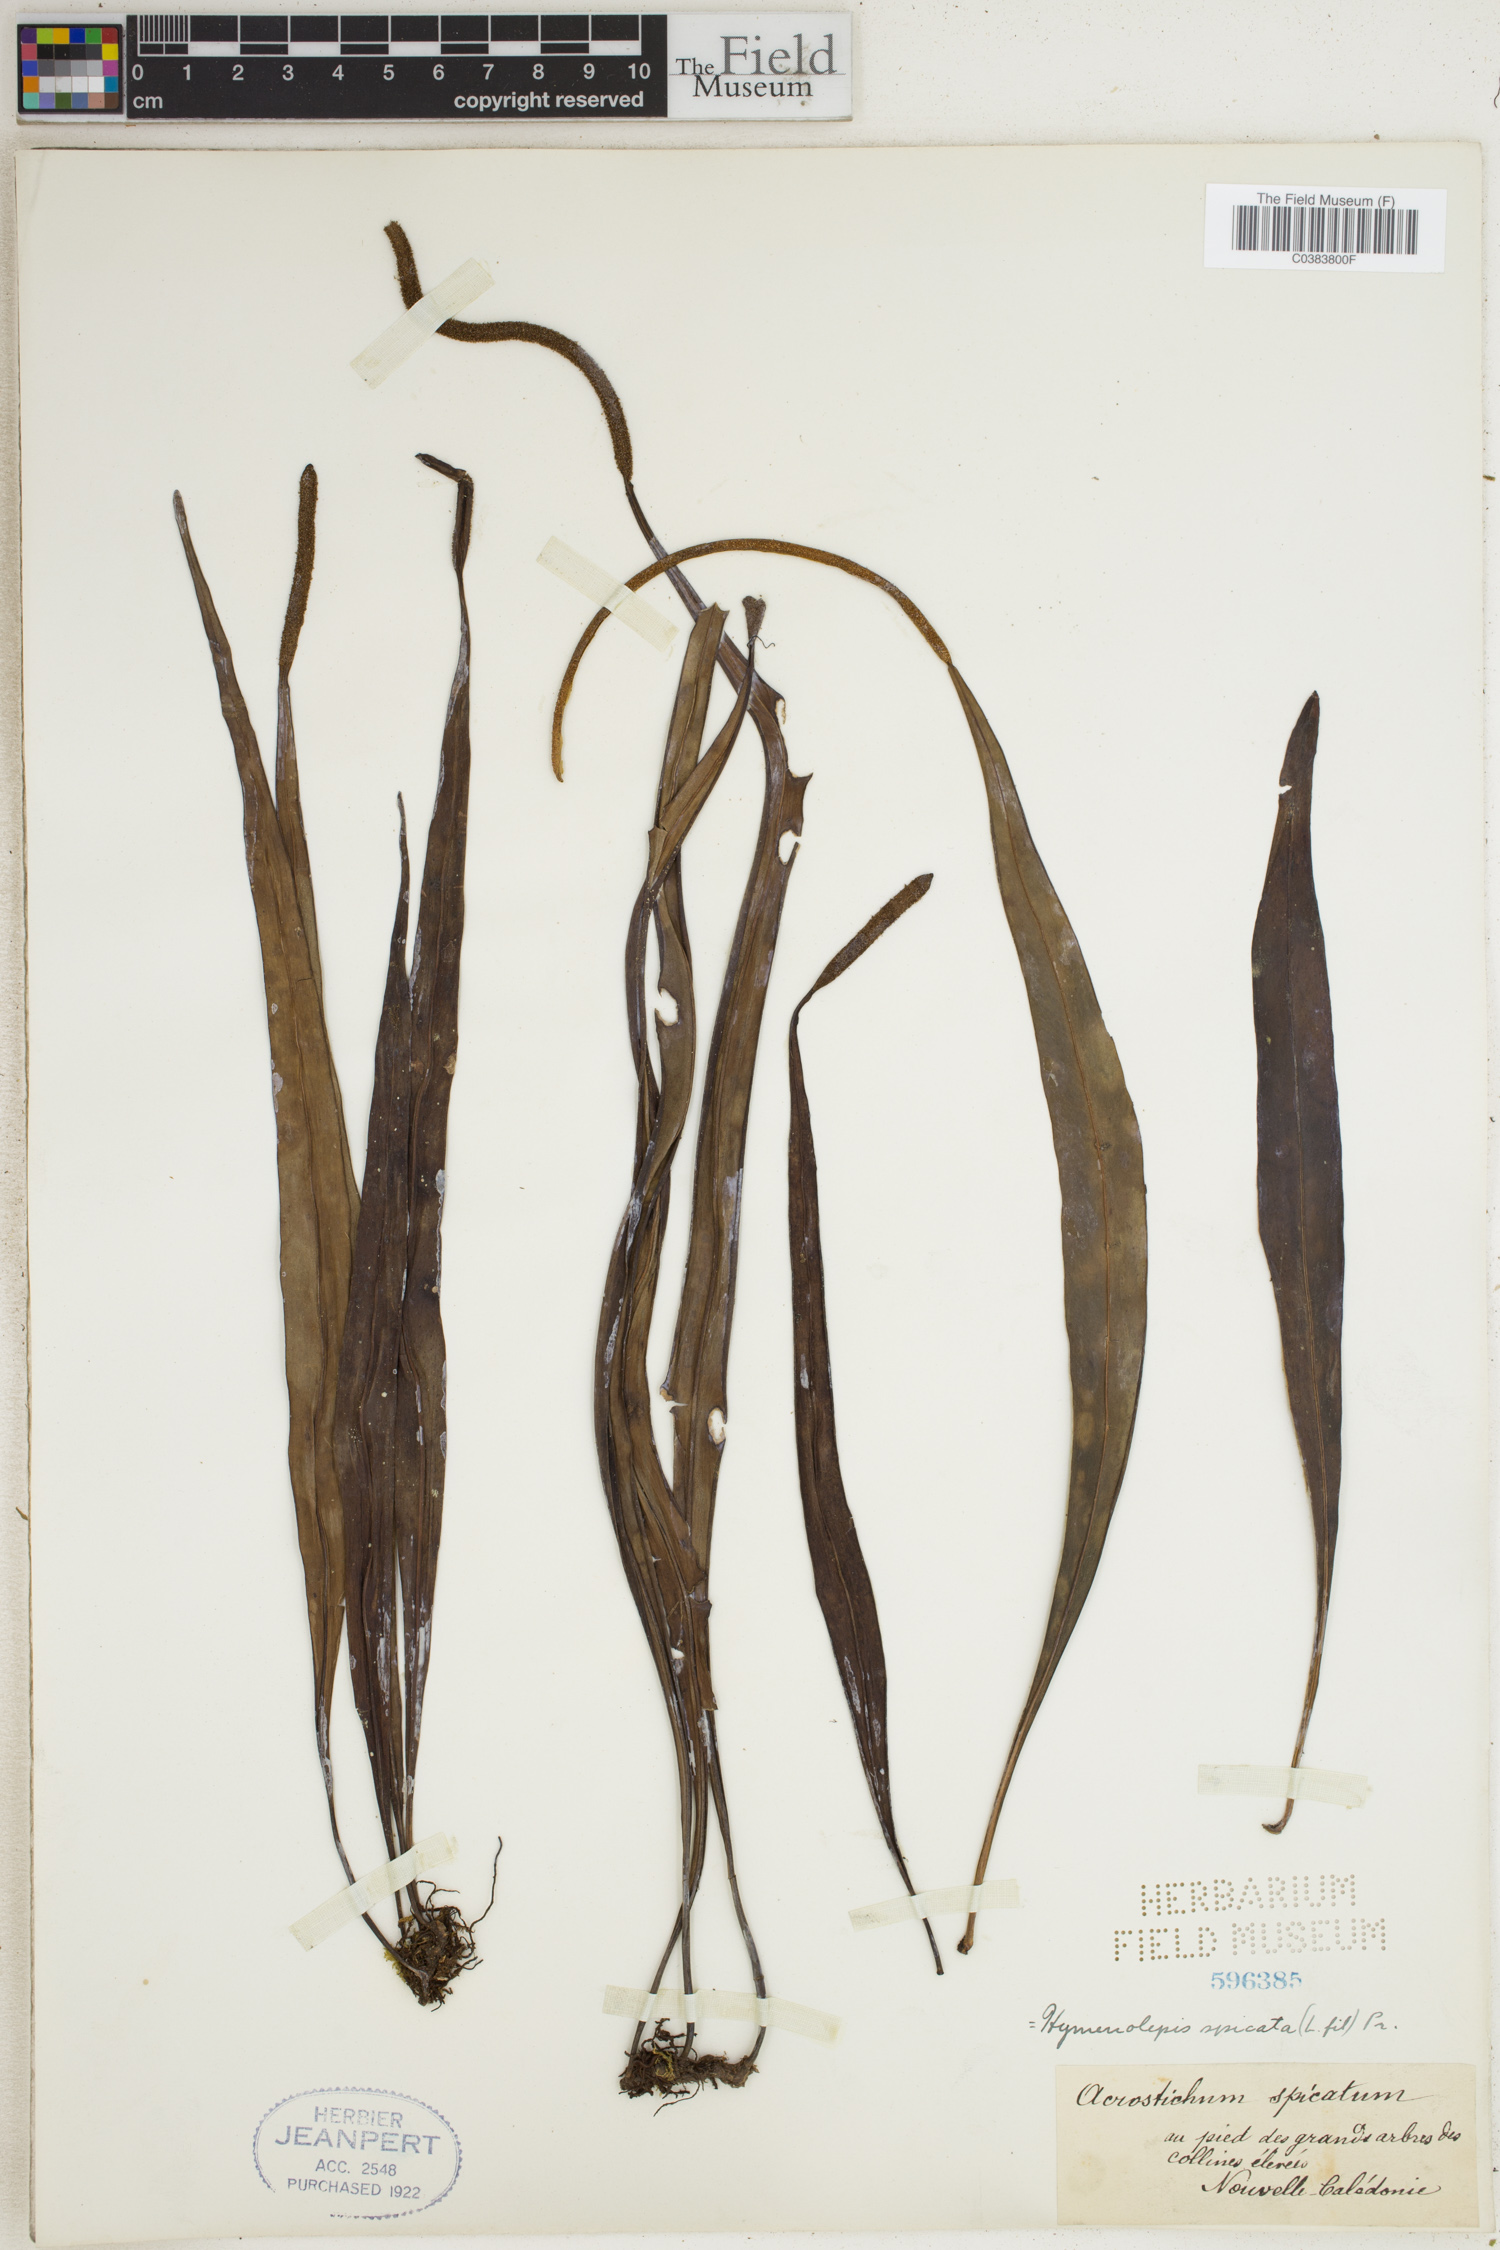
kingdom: Plantae
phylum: Tracheophyta
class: Polypodiopsida
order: Polypodiales
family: Polypodiaceae
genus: Lepisorus
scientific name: Lepisorus spicatus
